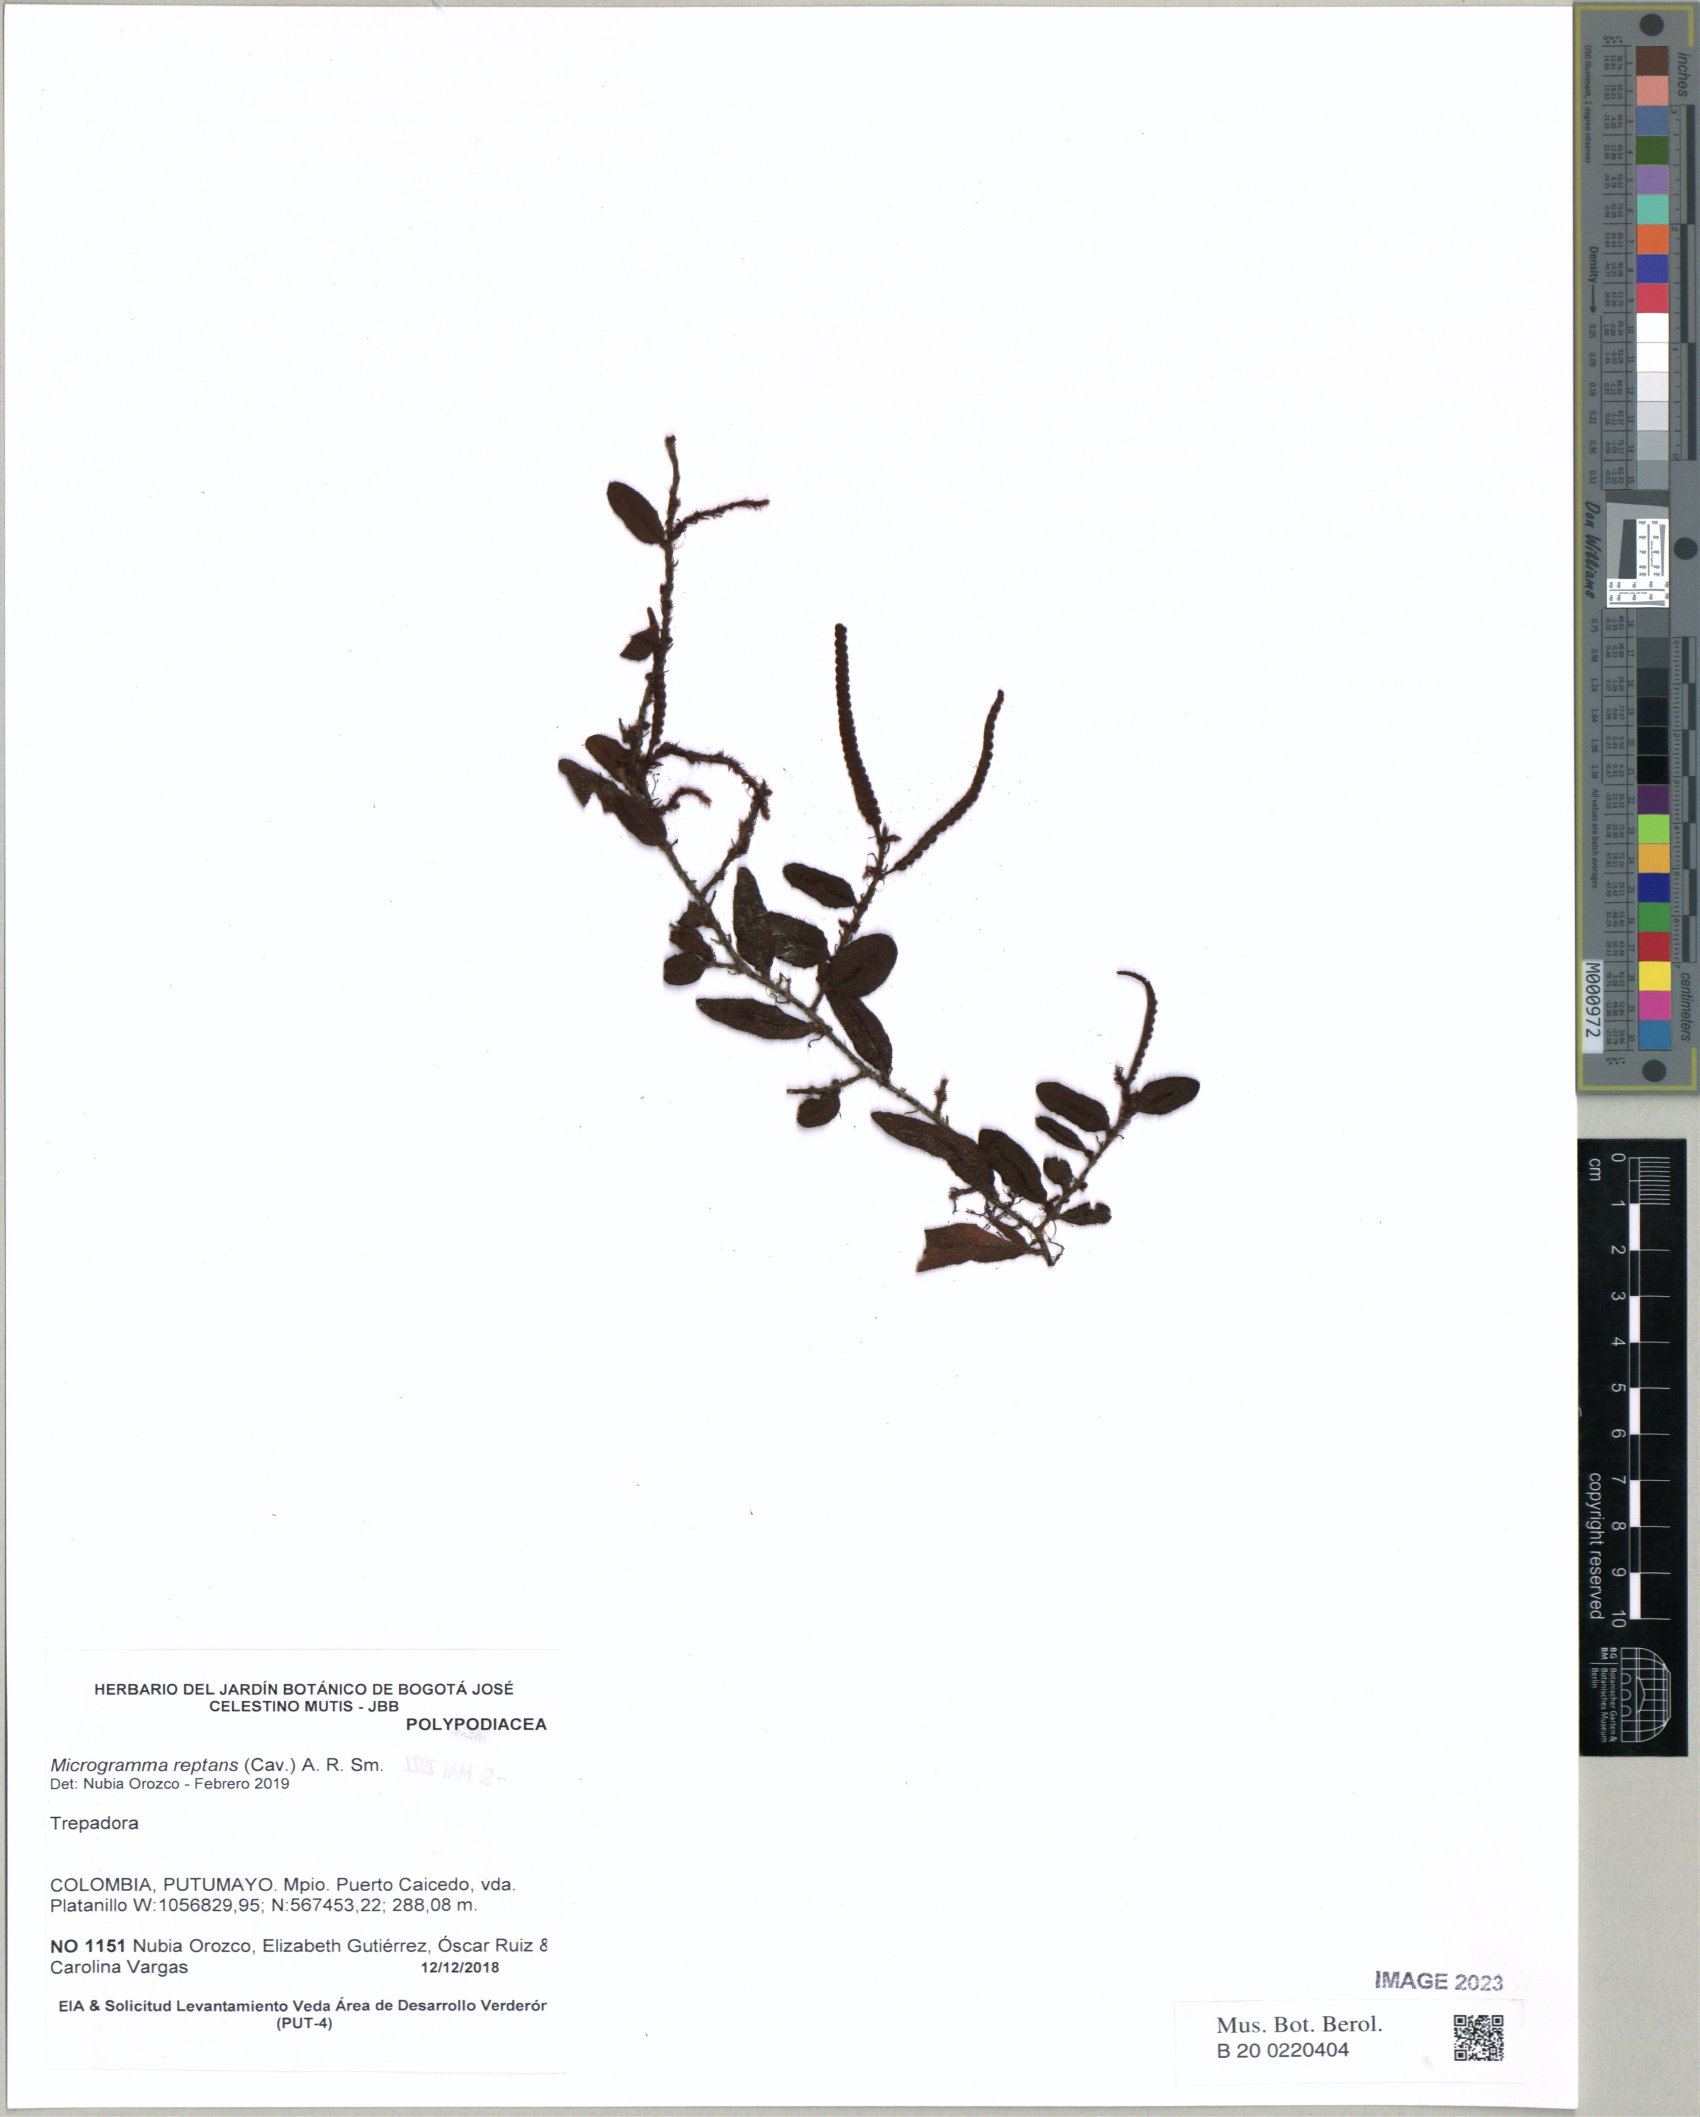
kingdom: Plantae
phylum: Tracheophyta
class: Polypodiopsida
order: Polypodiales
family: Polypodiaceae
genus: Microgramma
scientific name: Microgramma reptans
